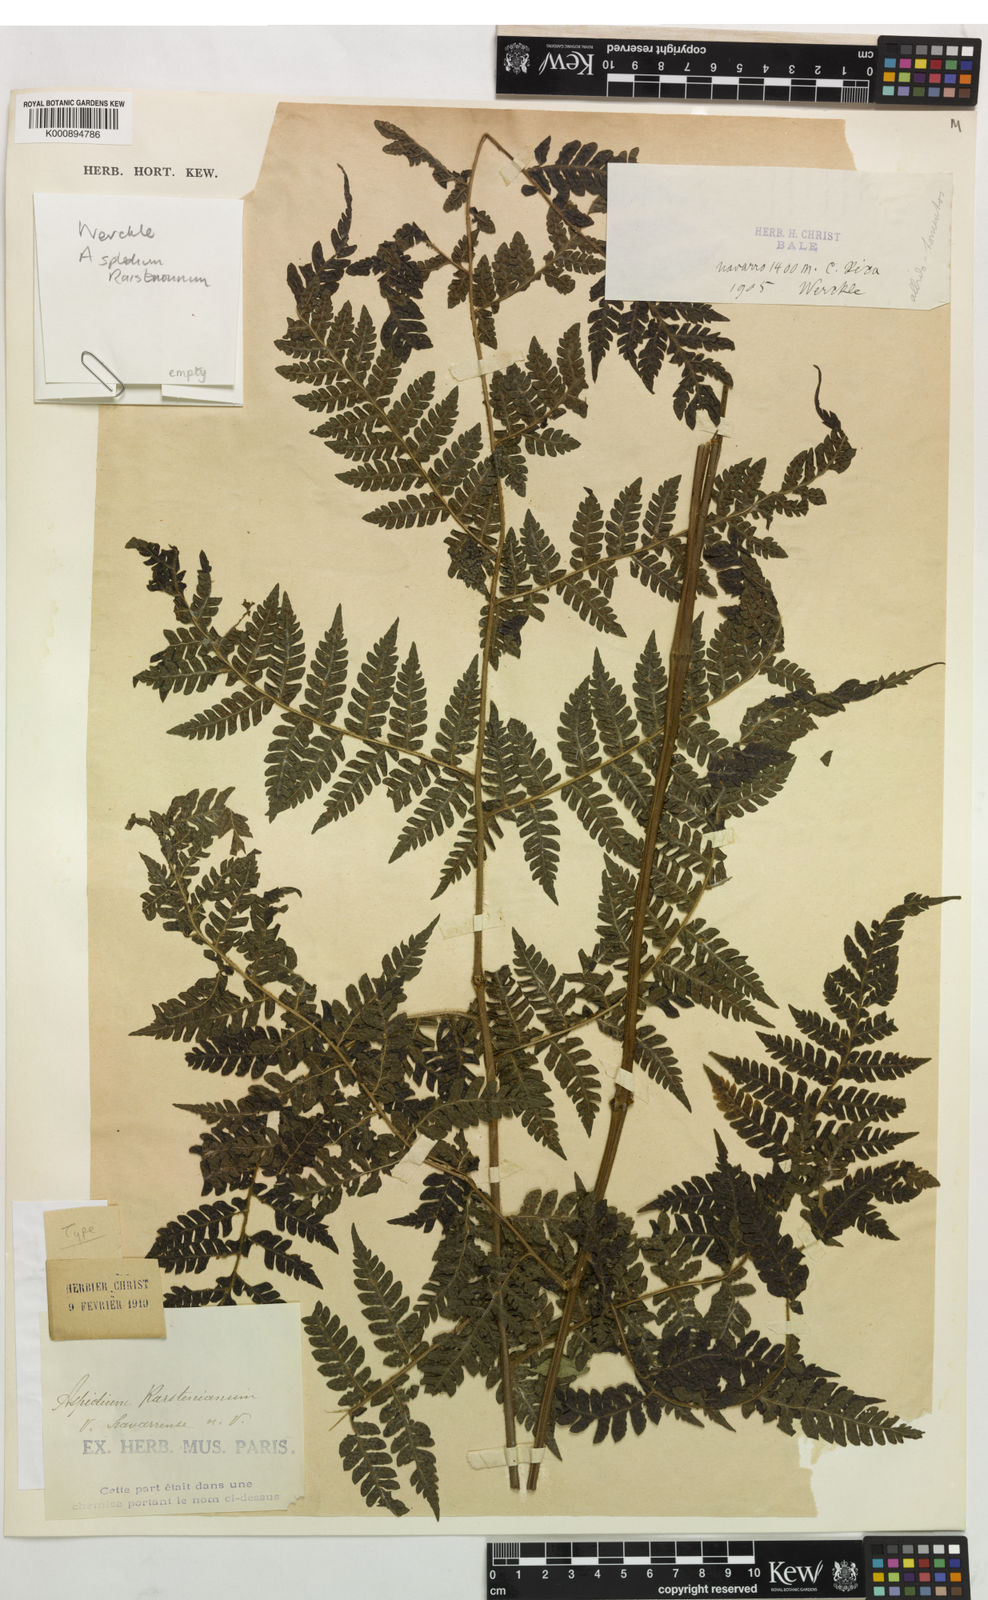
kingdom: Plantae
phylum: Tracheophyta
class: Polypodiopsida
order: Polypodiales
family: Dryopteridaceae
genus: Megalastrum
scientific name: Megalastrum atrogriseum
